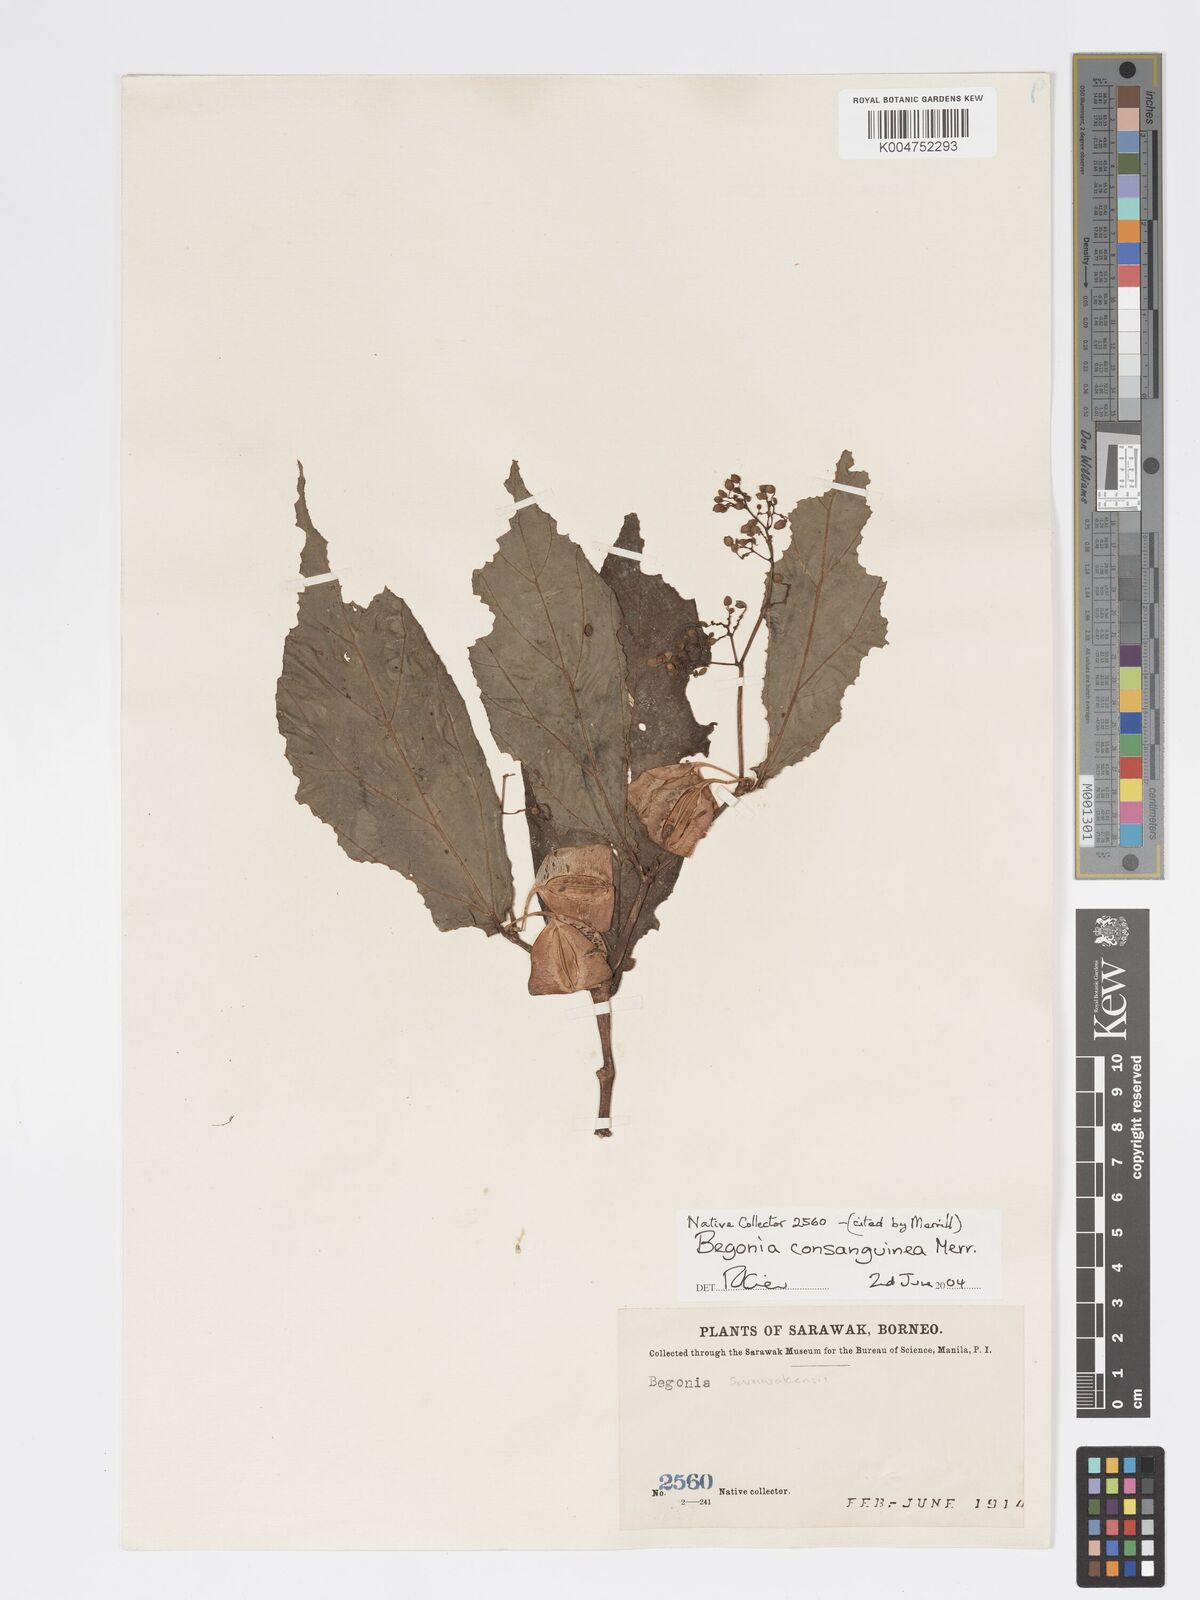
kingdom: Plantae
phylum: Tracheophyta
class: Magnoliopsida
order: Cucurbitales
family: Begoniaceae
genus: Begonia
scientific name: Begonia consanguinea
